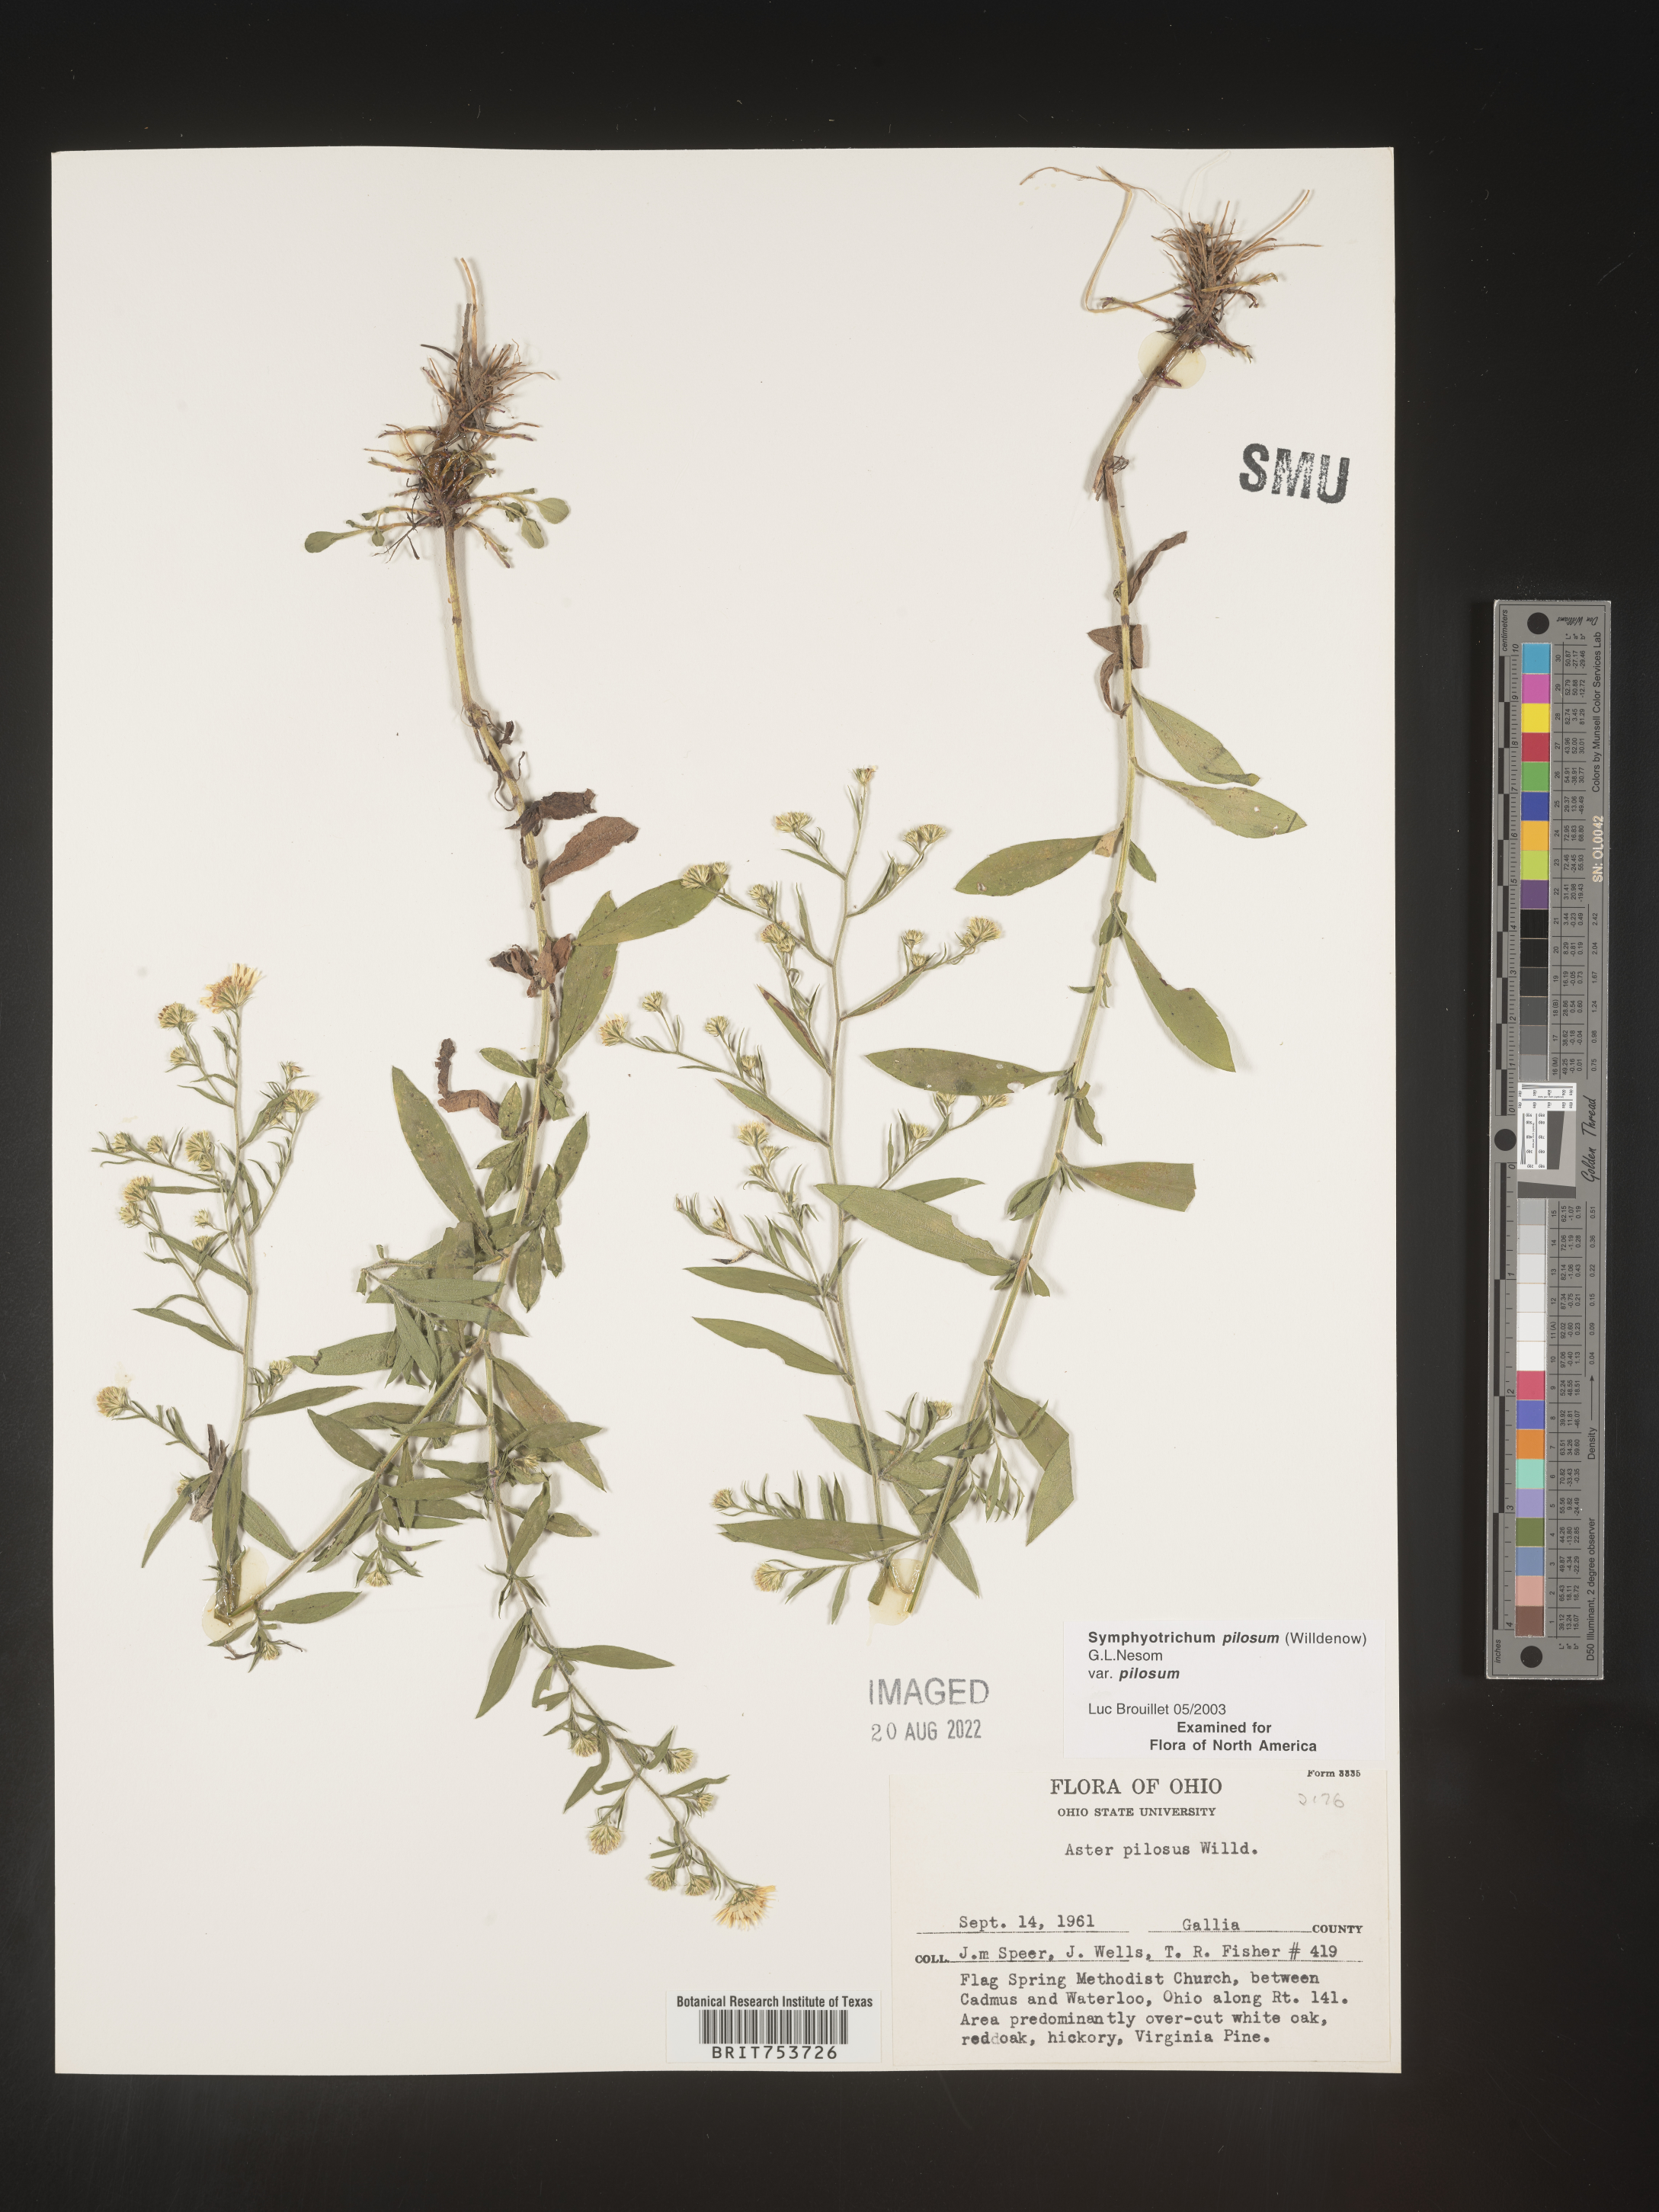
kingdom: Plantae
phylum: Tracheophyta
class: Magnoliopsida
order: Asterales
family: Asteraceae
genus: Symphyotrichum
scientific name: Symphyotrichum pilosum
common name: Awl aster
